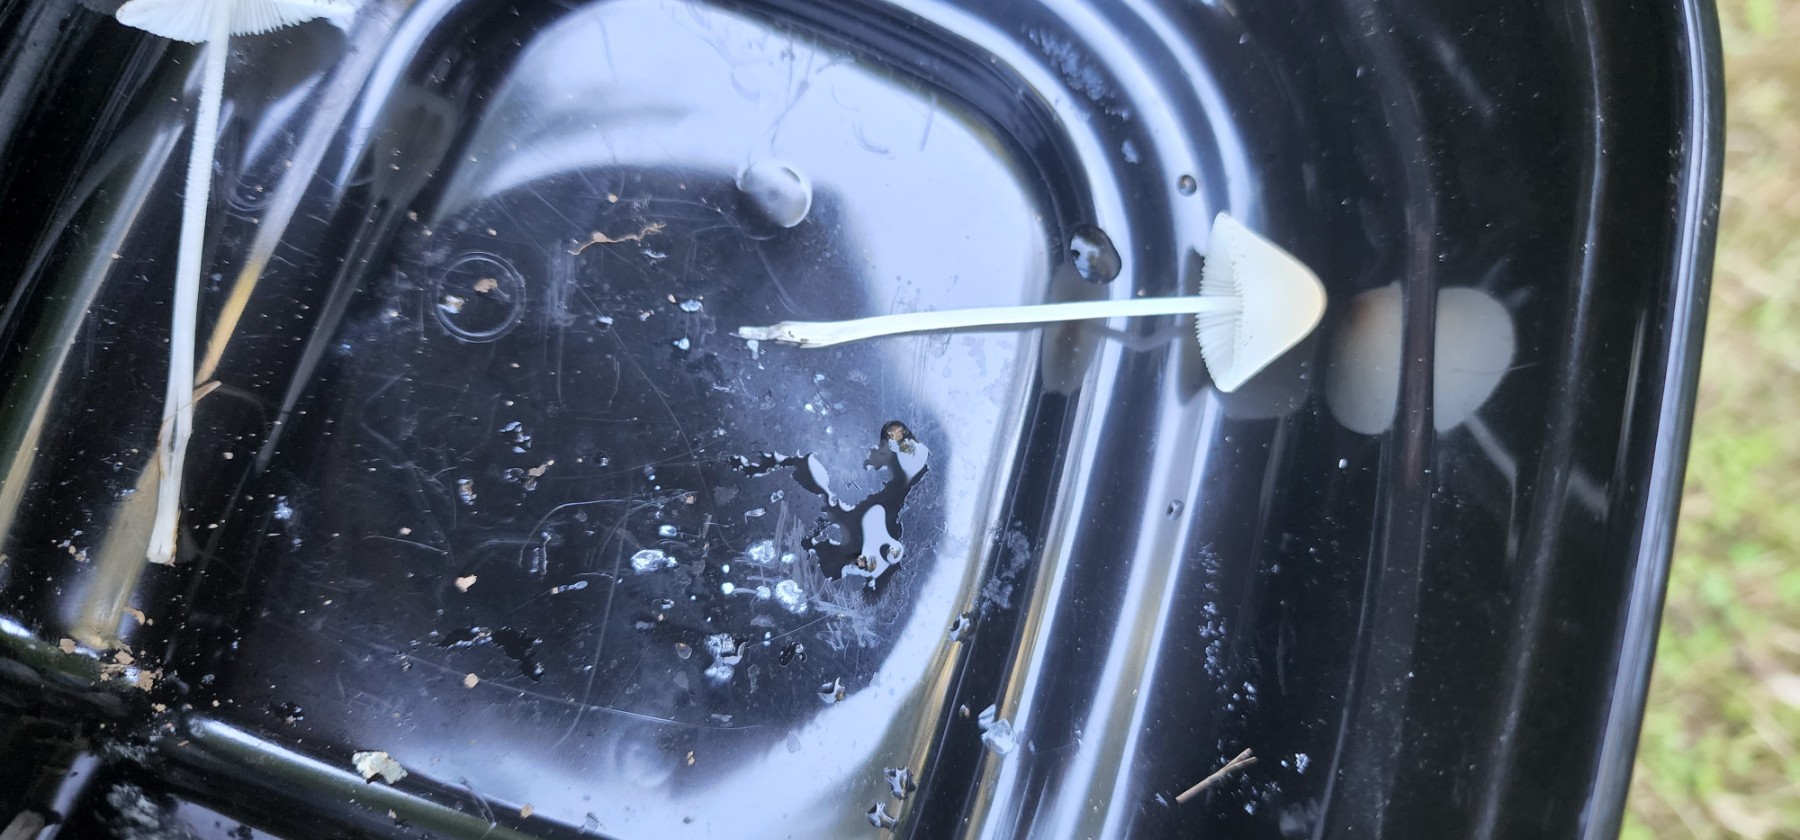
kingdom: Fungi
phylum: Basidiomycota
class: Agaricomycetes
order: Agaricales
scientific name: Agaricales
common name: champignonordenen
